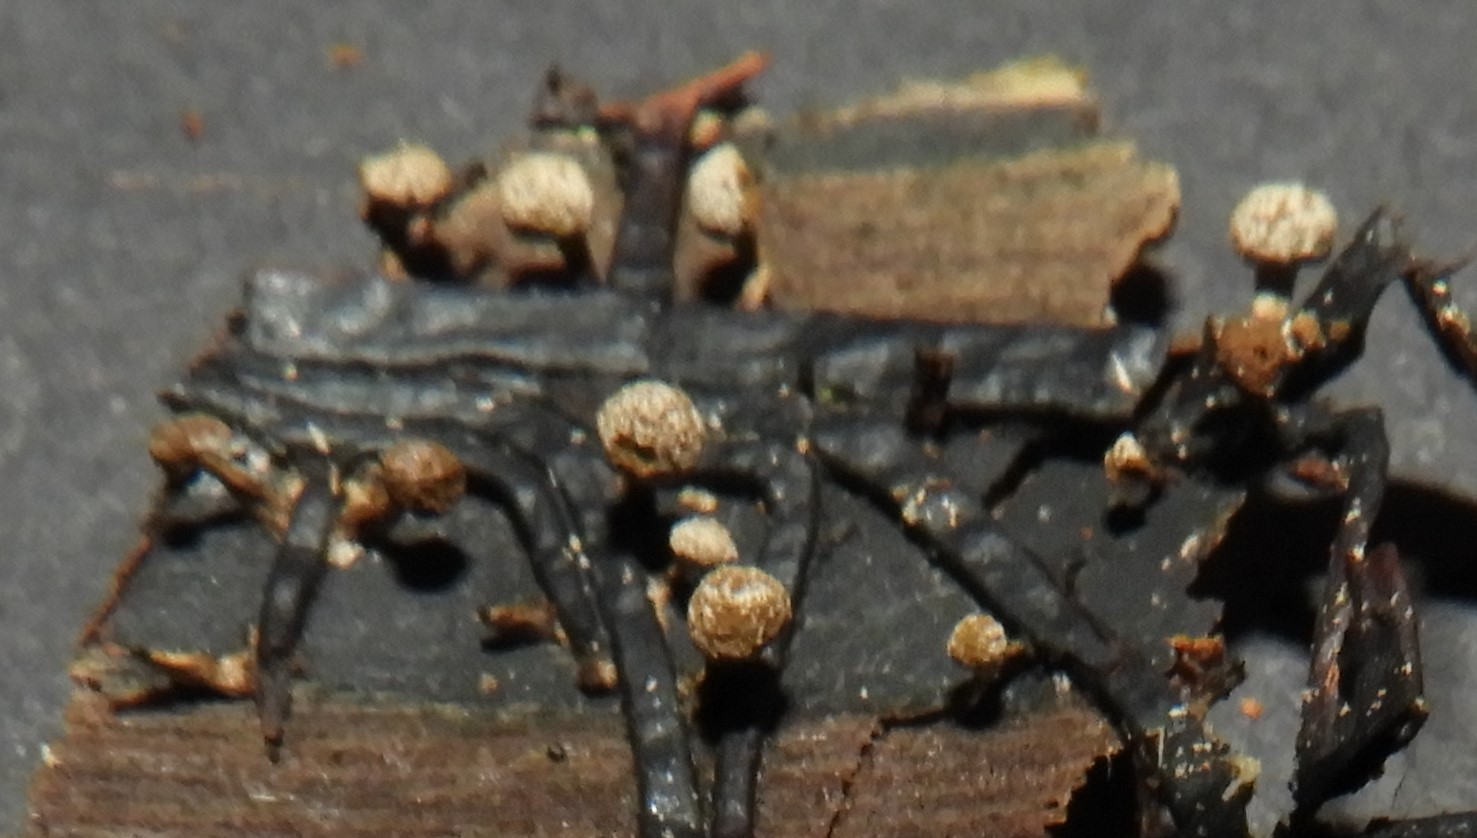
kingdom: Fungi
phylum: Basidiomycota
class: Atractiellomycetes
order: Atractiellales
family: Phleogenaceae
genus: Phleogena
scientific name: Phleogena faginea
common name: pudderkølle
